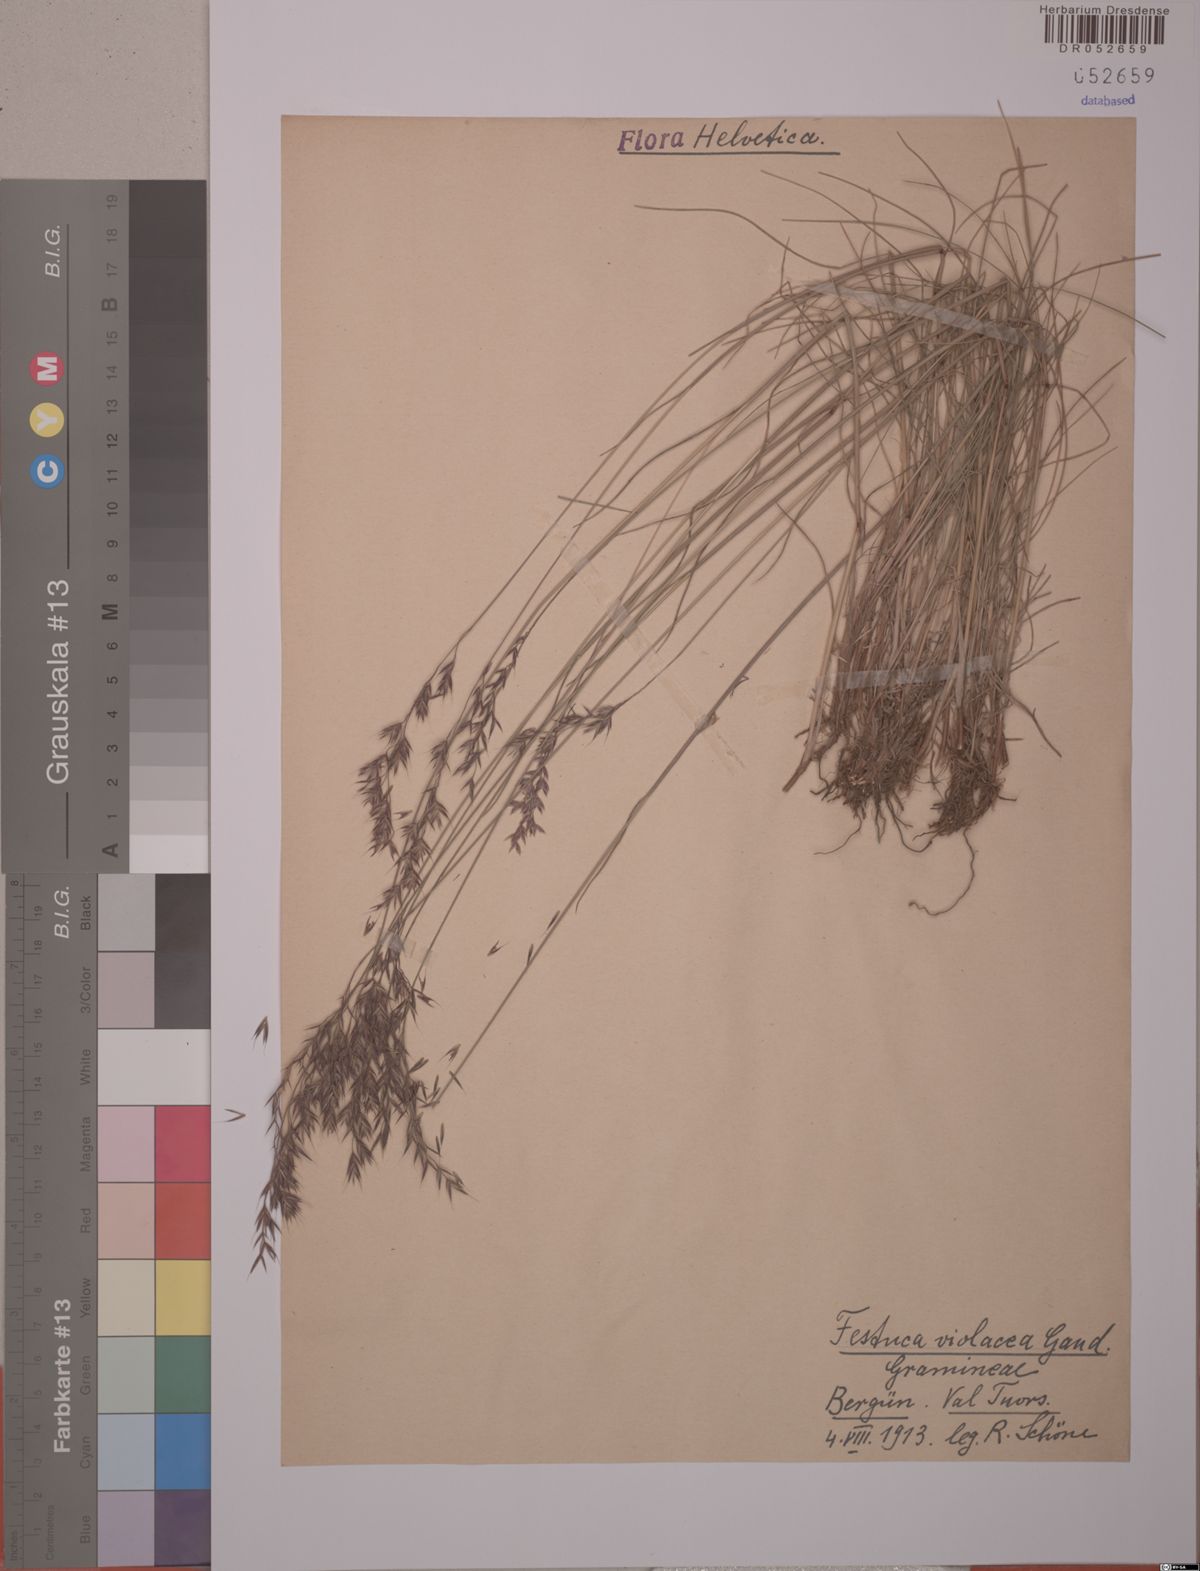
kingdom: Plantae
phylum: Tracheophyta
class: Liliopsida
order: Poales
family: Poaceae
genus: Festuca
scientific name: Festuca violacea
